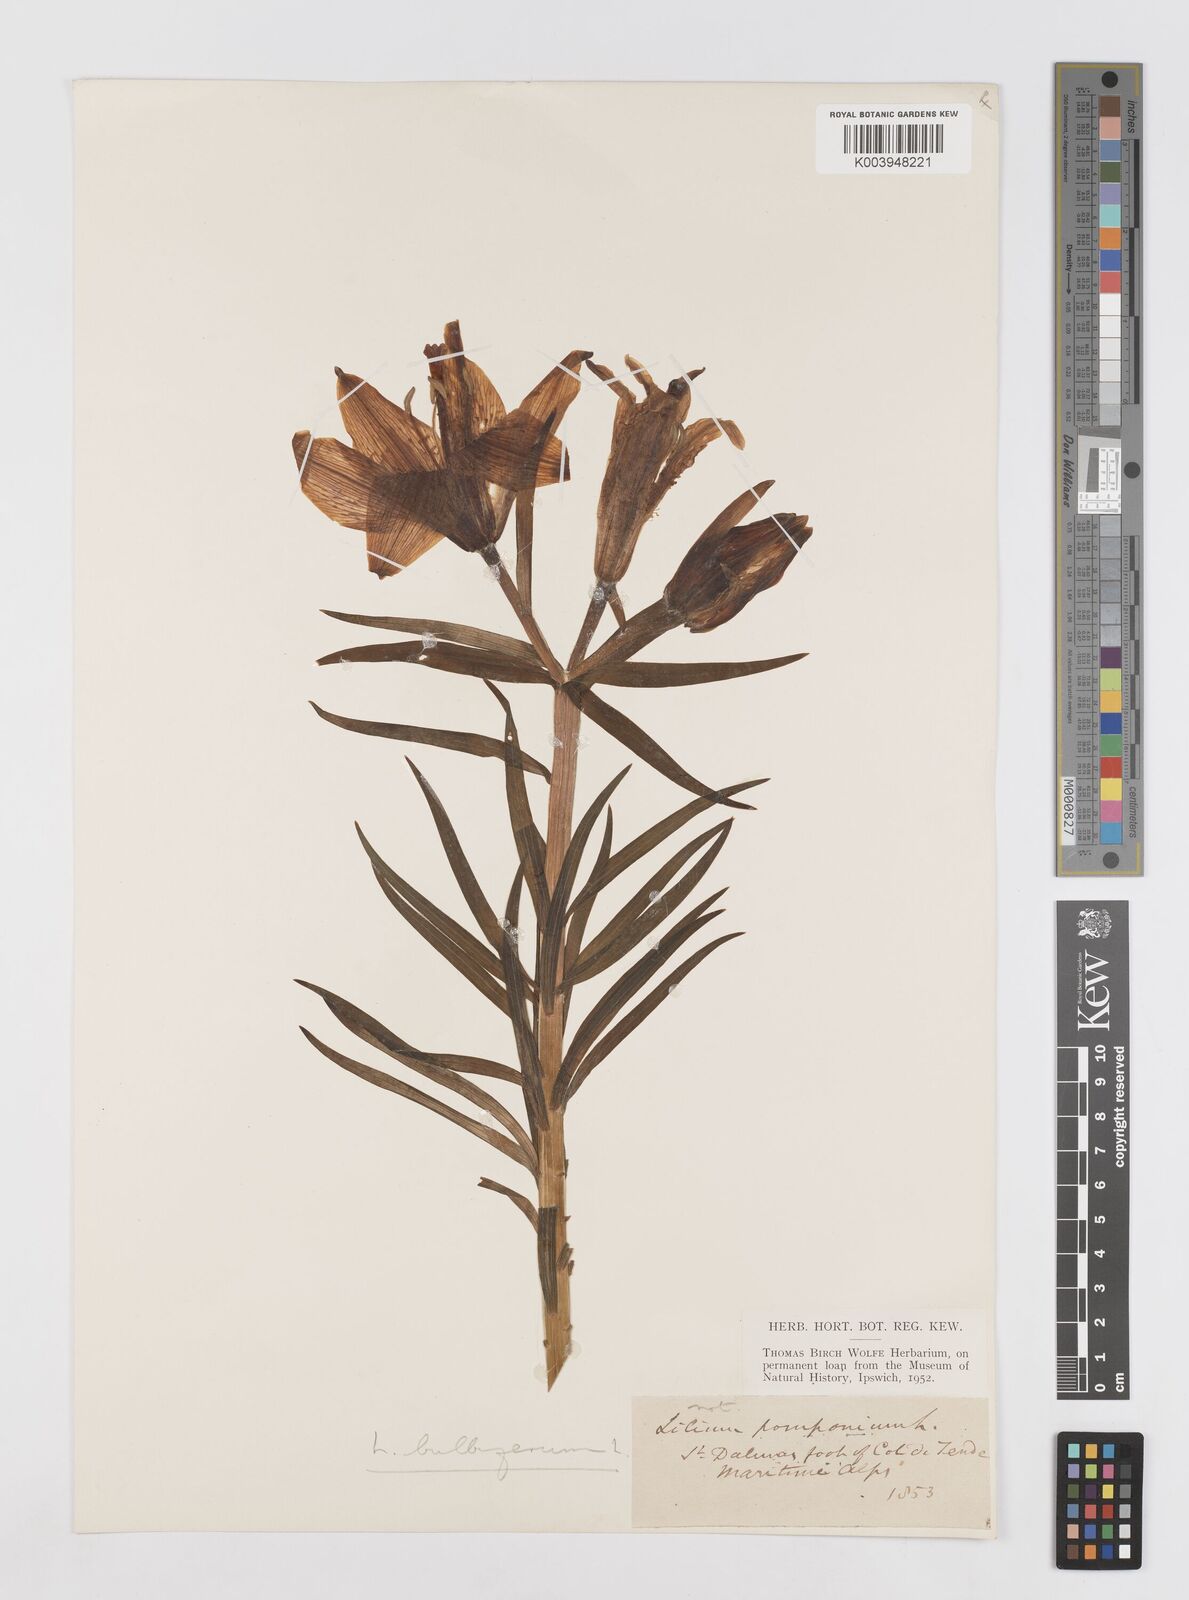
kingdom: Plantae
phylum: Tracheophyta
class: Liliopsida
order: Liliales
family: Liliaceae
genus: Lilium
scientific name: Lilium bulbiferum
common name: Orange lily
